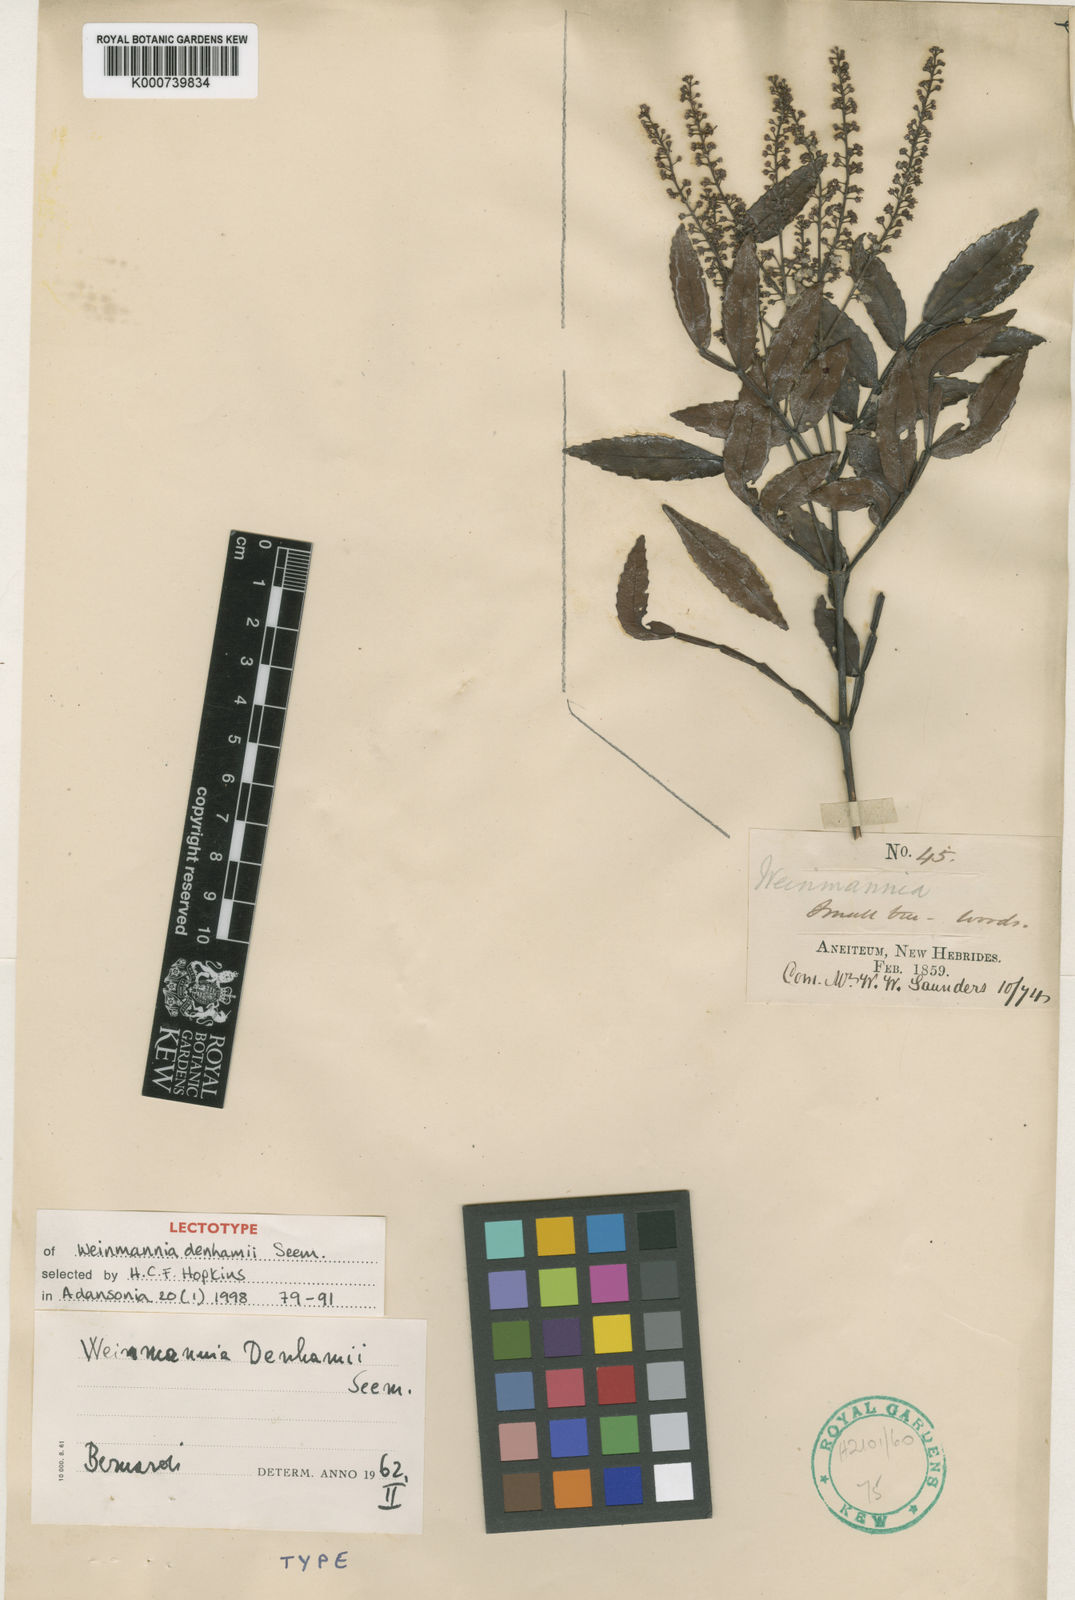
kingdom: Plantae
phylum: Tracheophyta
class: Magnoliopsida
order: Oxalidales
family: Cunoniaceae
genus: Pterophylla
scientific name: Pterophylla denhamii
